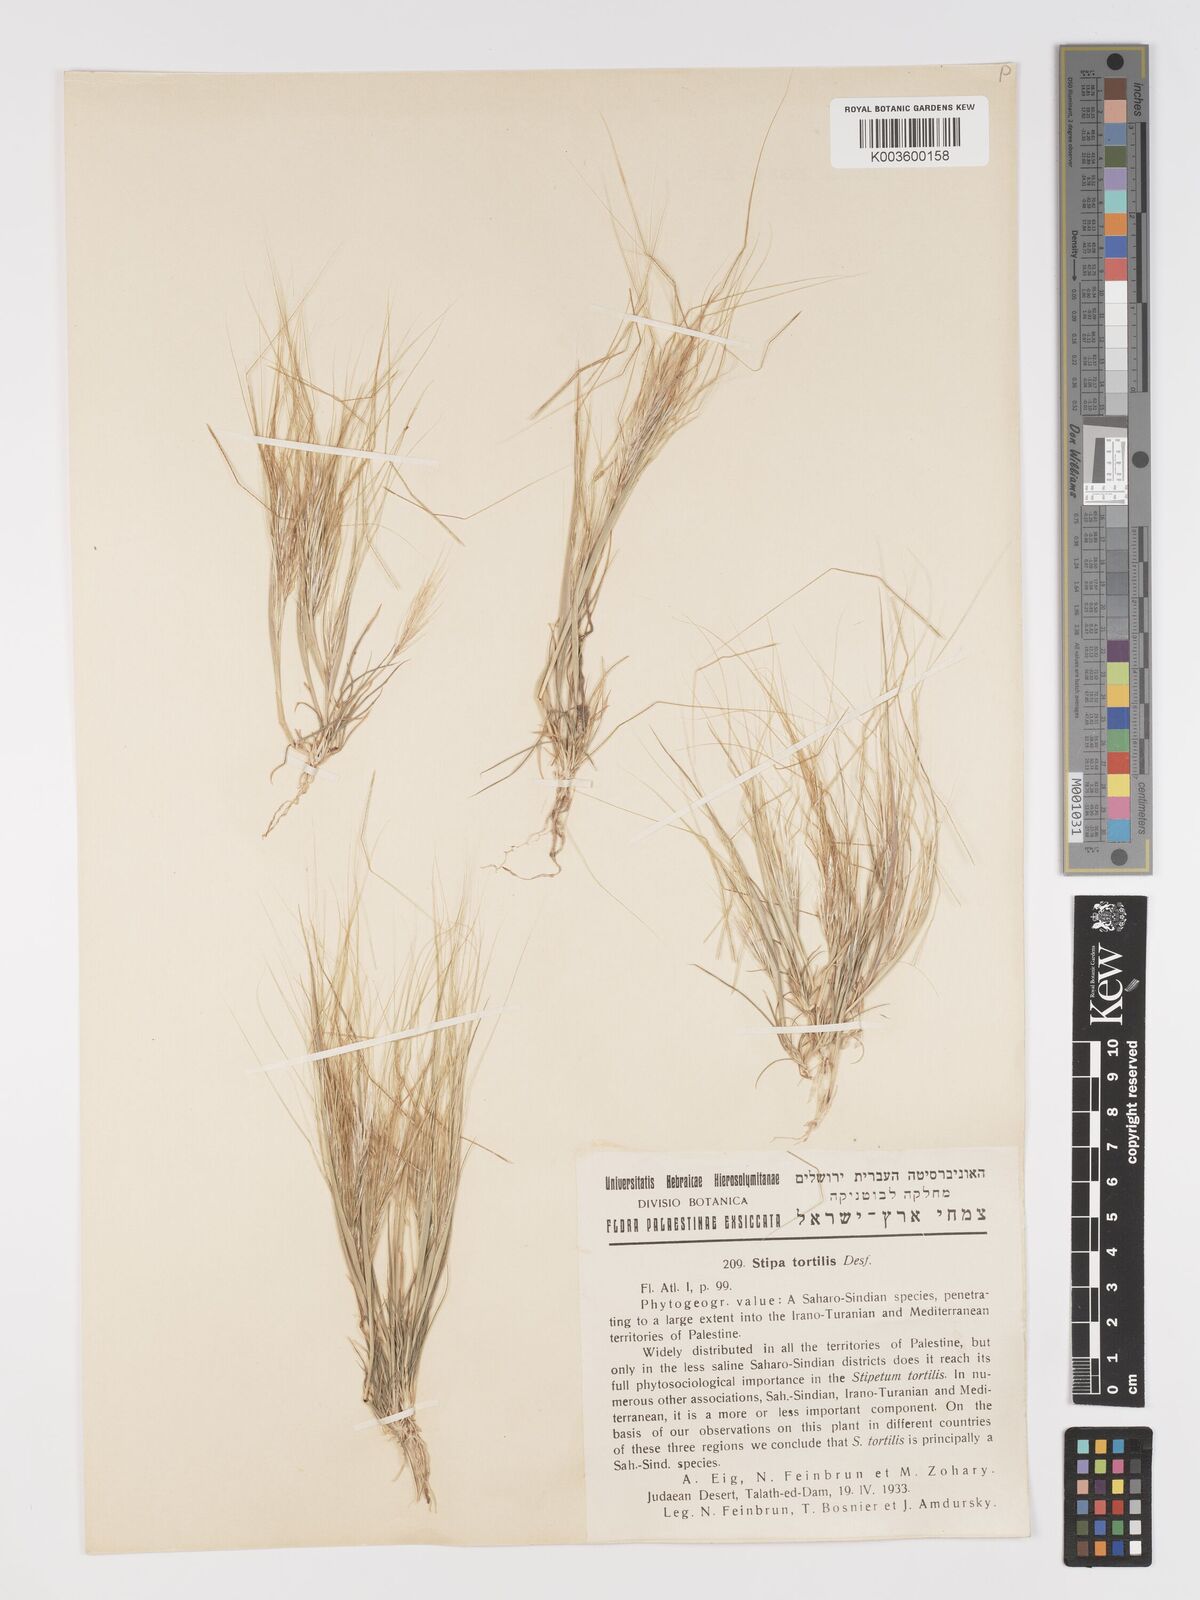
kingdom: Plantae
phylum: Tracheophyta
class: Liliopsida
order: Poales
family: Poaceae
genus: Stipellula
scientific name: Stipellula capensis
